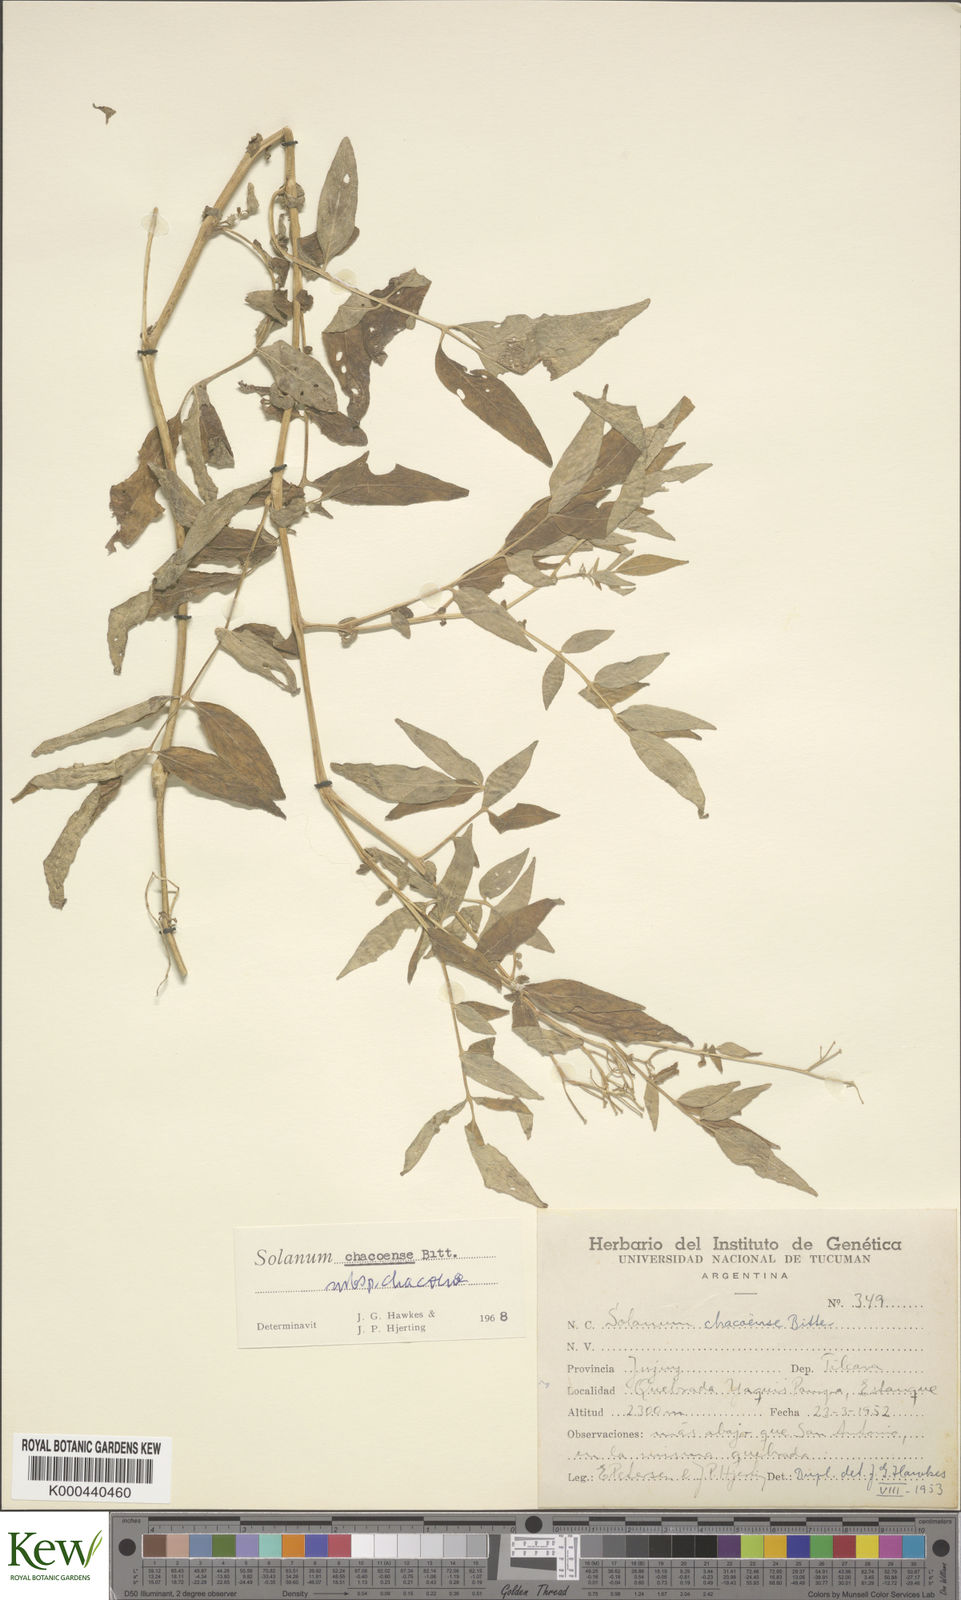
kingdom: Plantae
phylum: Tracheophyta
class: Magnoliopsida
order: Solanales
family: Solanaceae
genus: Solanum
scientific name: Solanum chacoense
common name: Chaco potato
